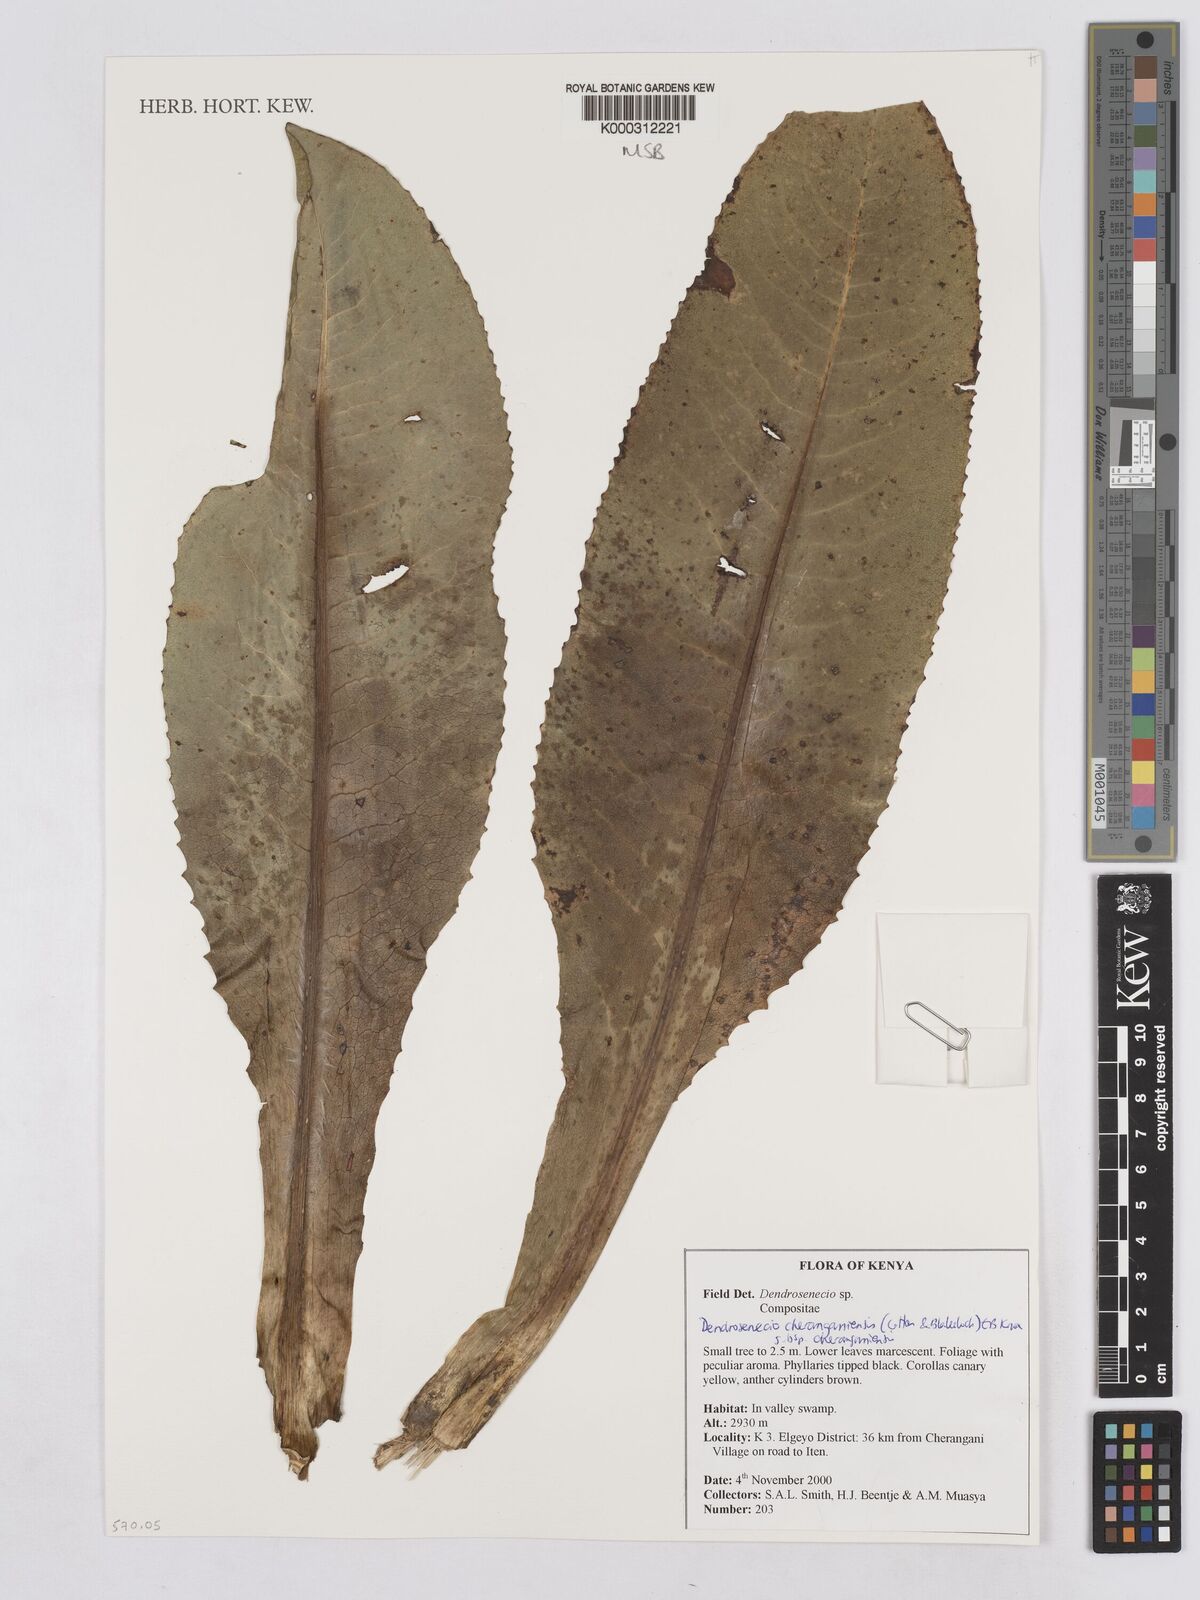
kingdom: Plantae
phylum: Tracheophyta
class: Magnoliopsida
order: Asterales
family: Asteraceae
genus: Dendrosenecio
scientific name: Dendrosenecio cheranganiensis
